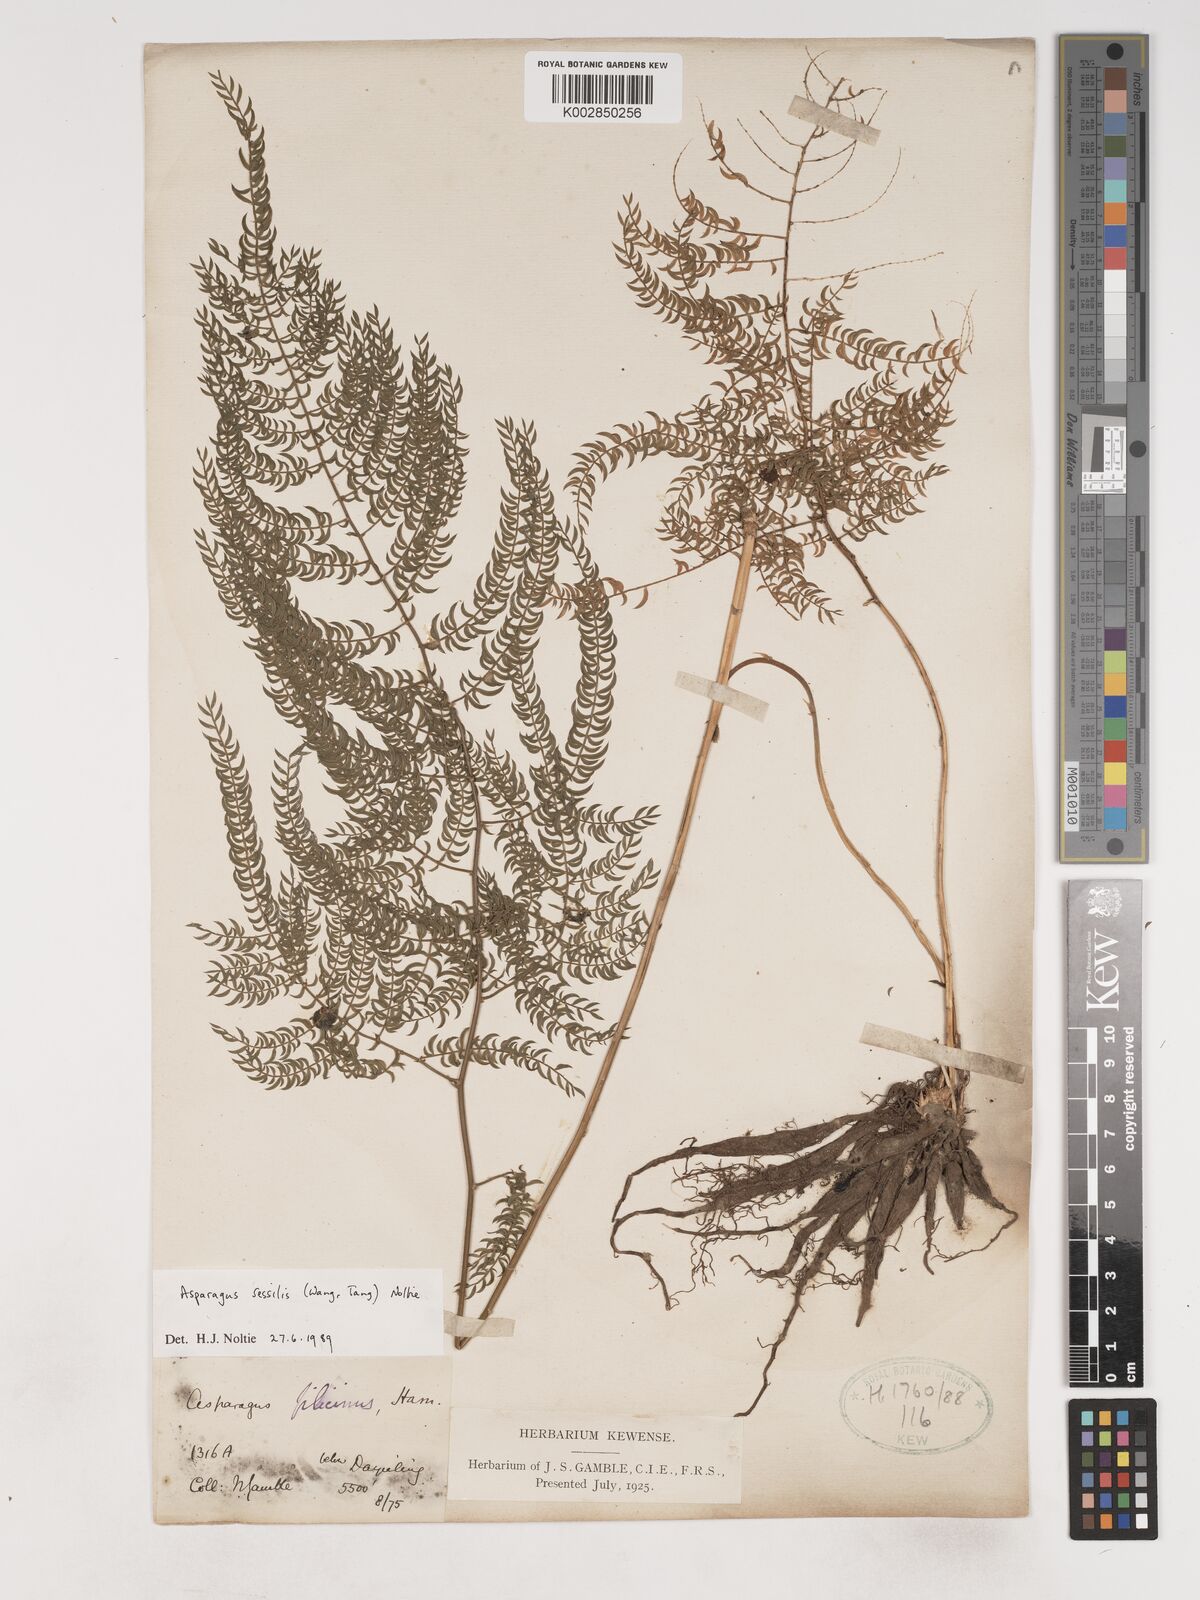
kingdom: Plantae
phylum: Tracheophyta
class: Liliopsida
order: Asparagales
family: Asparagaceae
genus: Asparagus
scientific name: Asparagus
